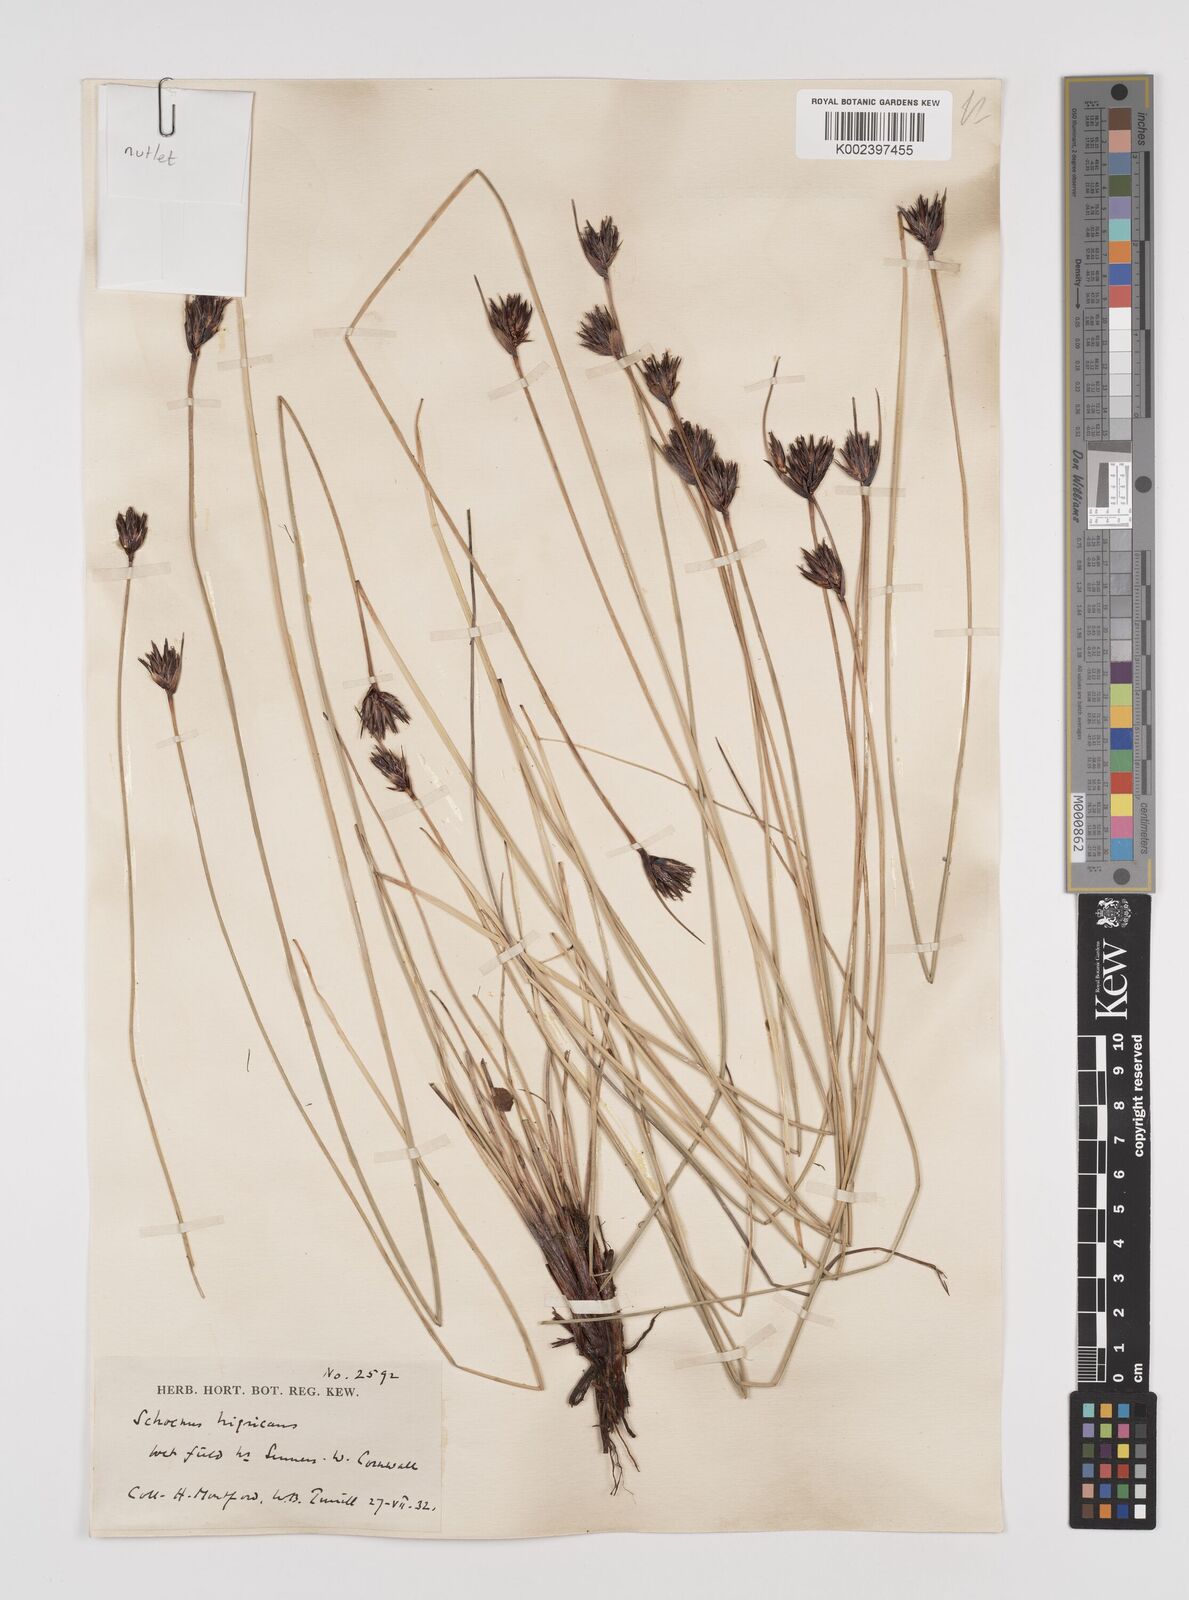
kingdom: Plantae
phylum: Tracheophyta
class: Liliopsida
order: Poales
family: Cyperaceae
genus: Schoenus
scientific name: Schoenus nigricans
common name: Black bog-rush
